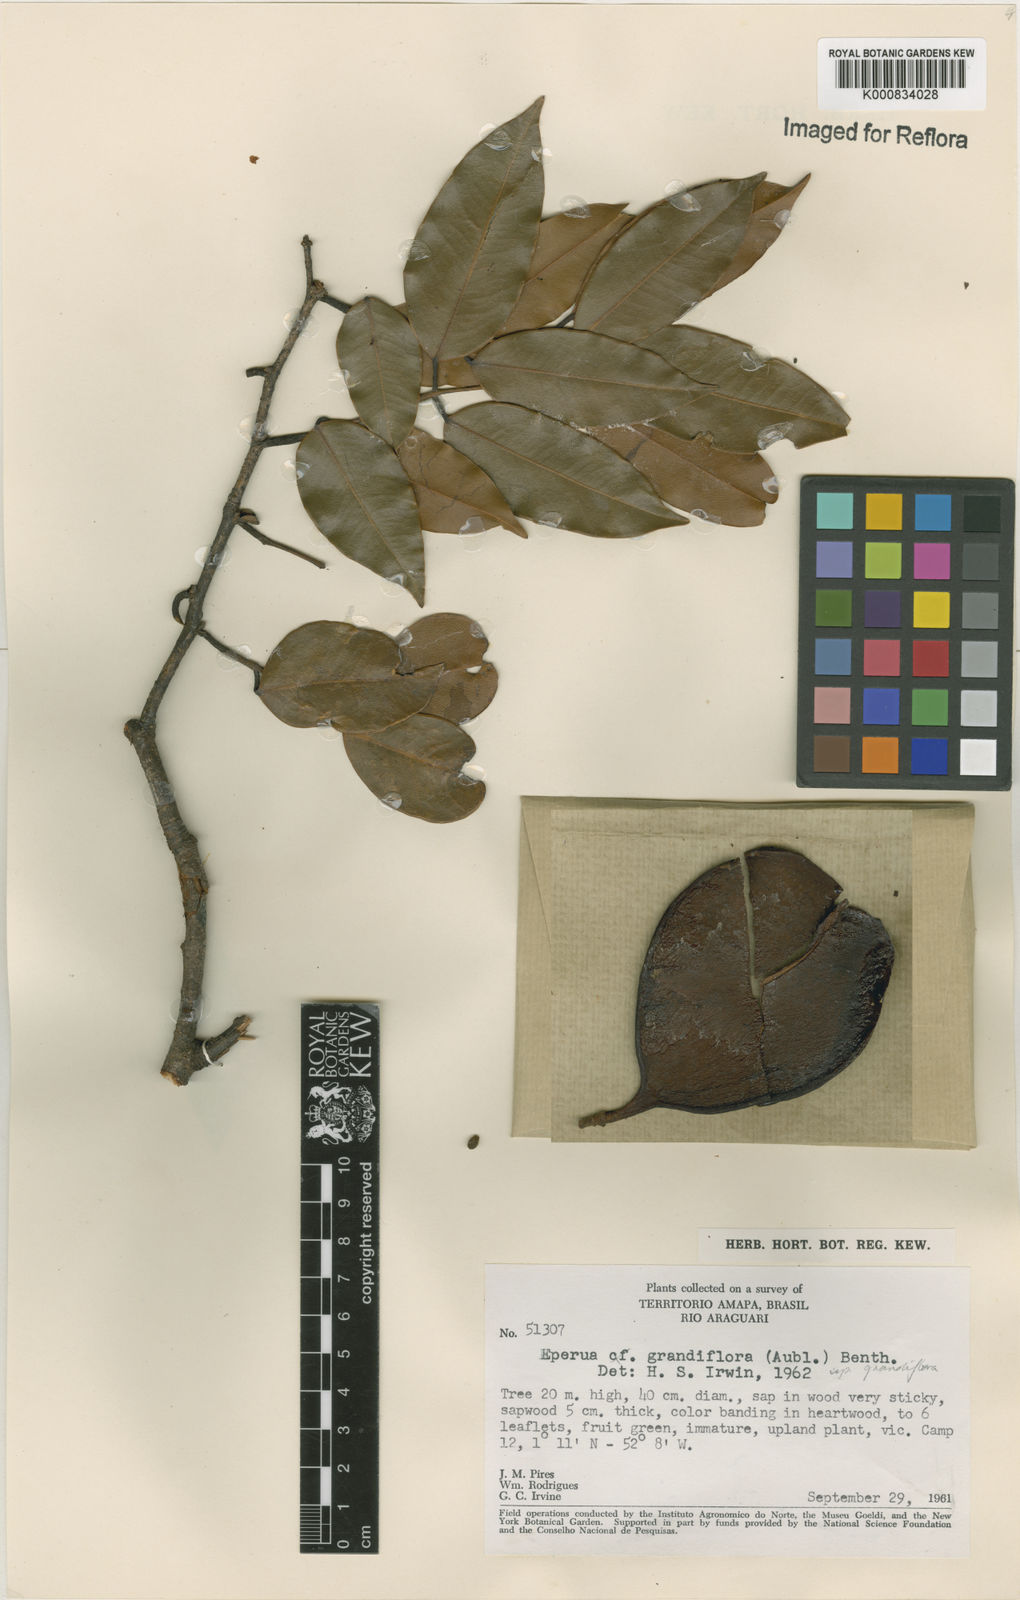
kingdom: Plantae
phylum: Tracheophyta
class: Magnoliopsida
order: Fabales
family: Fabaceae
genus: Eperua
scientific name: Eperua
